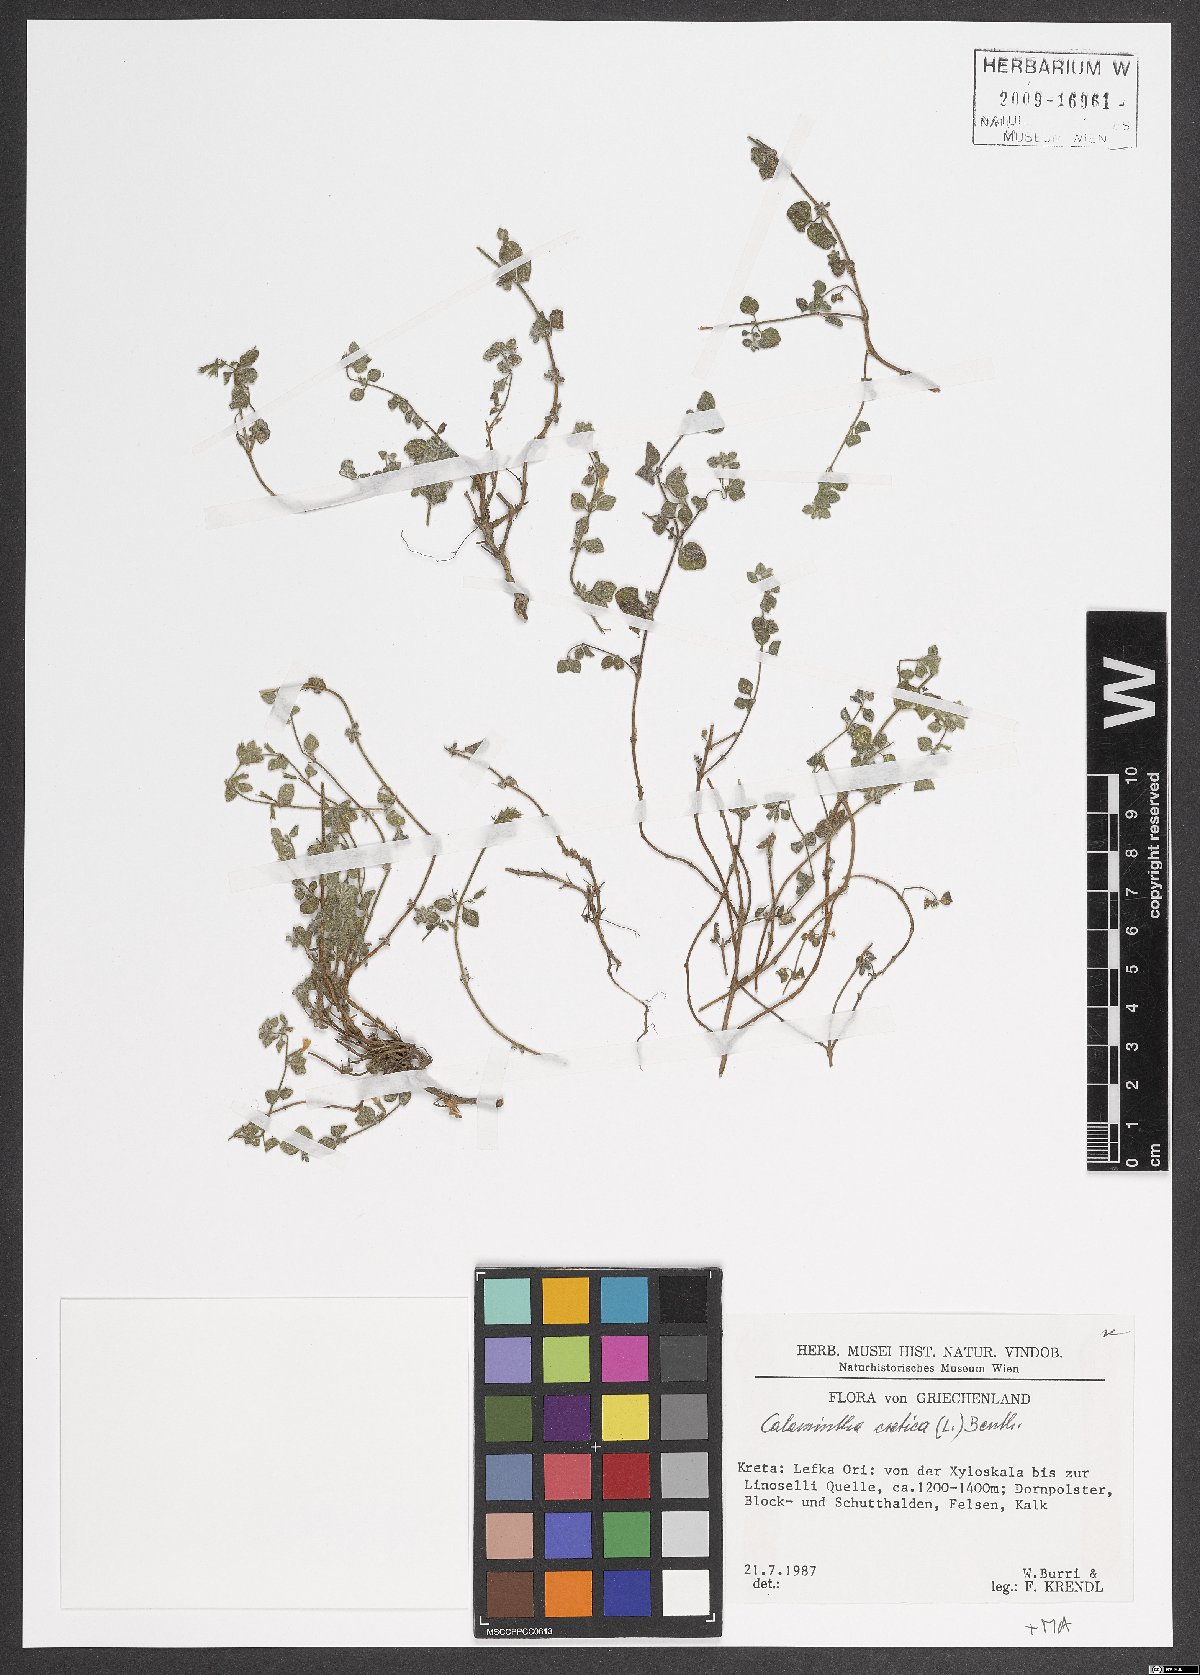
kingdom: Plantae
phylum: Tracheophyta
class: Magnoliopsida
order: Lamiales
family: Lamiaceae
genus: Clinopodium
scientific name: Clinopodium creticum
